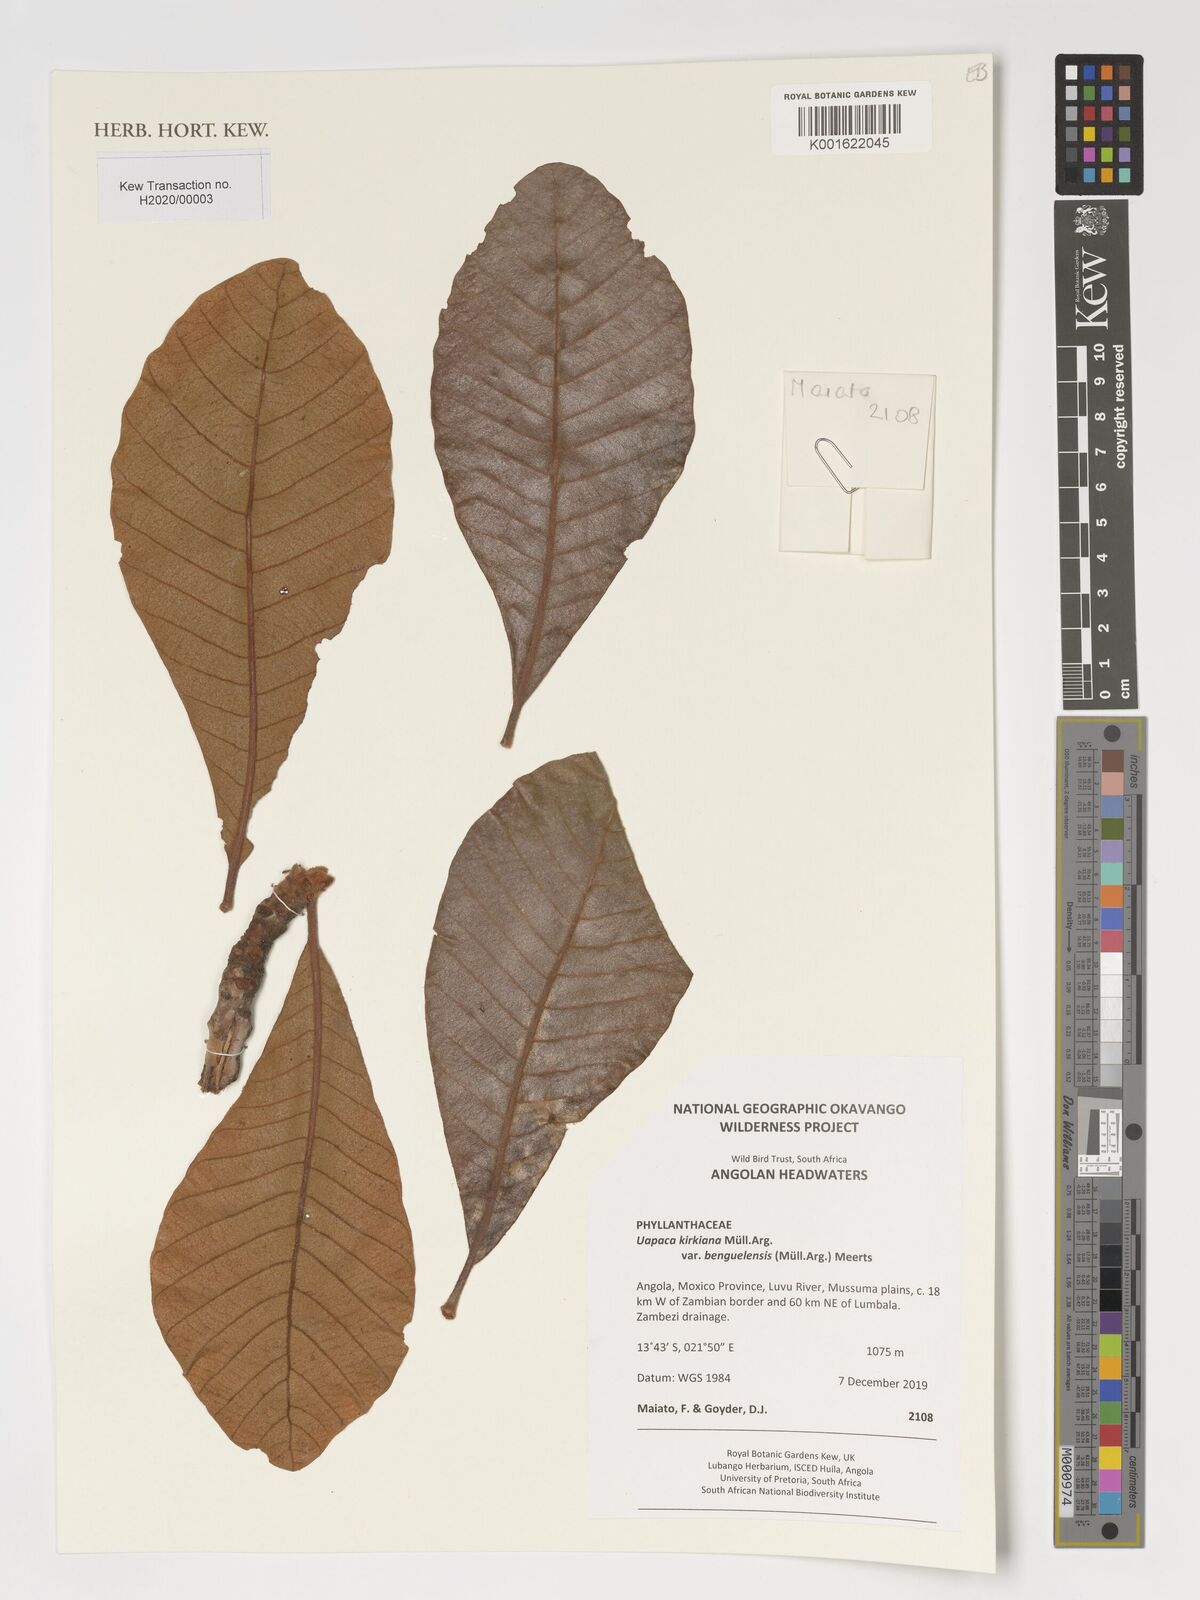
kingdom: Plantae
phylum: Tracheophyta
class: Magnoliopsida
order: Malpighiales
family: Phyllanthaceae
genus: Uapaca
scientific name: Uapaca kirkiana
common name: Wild loquat
